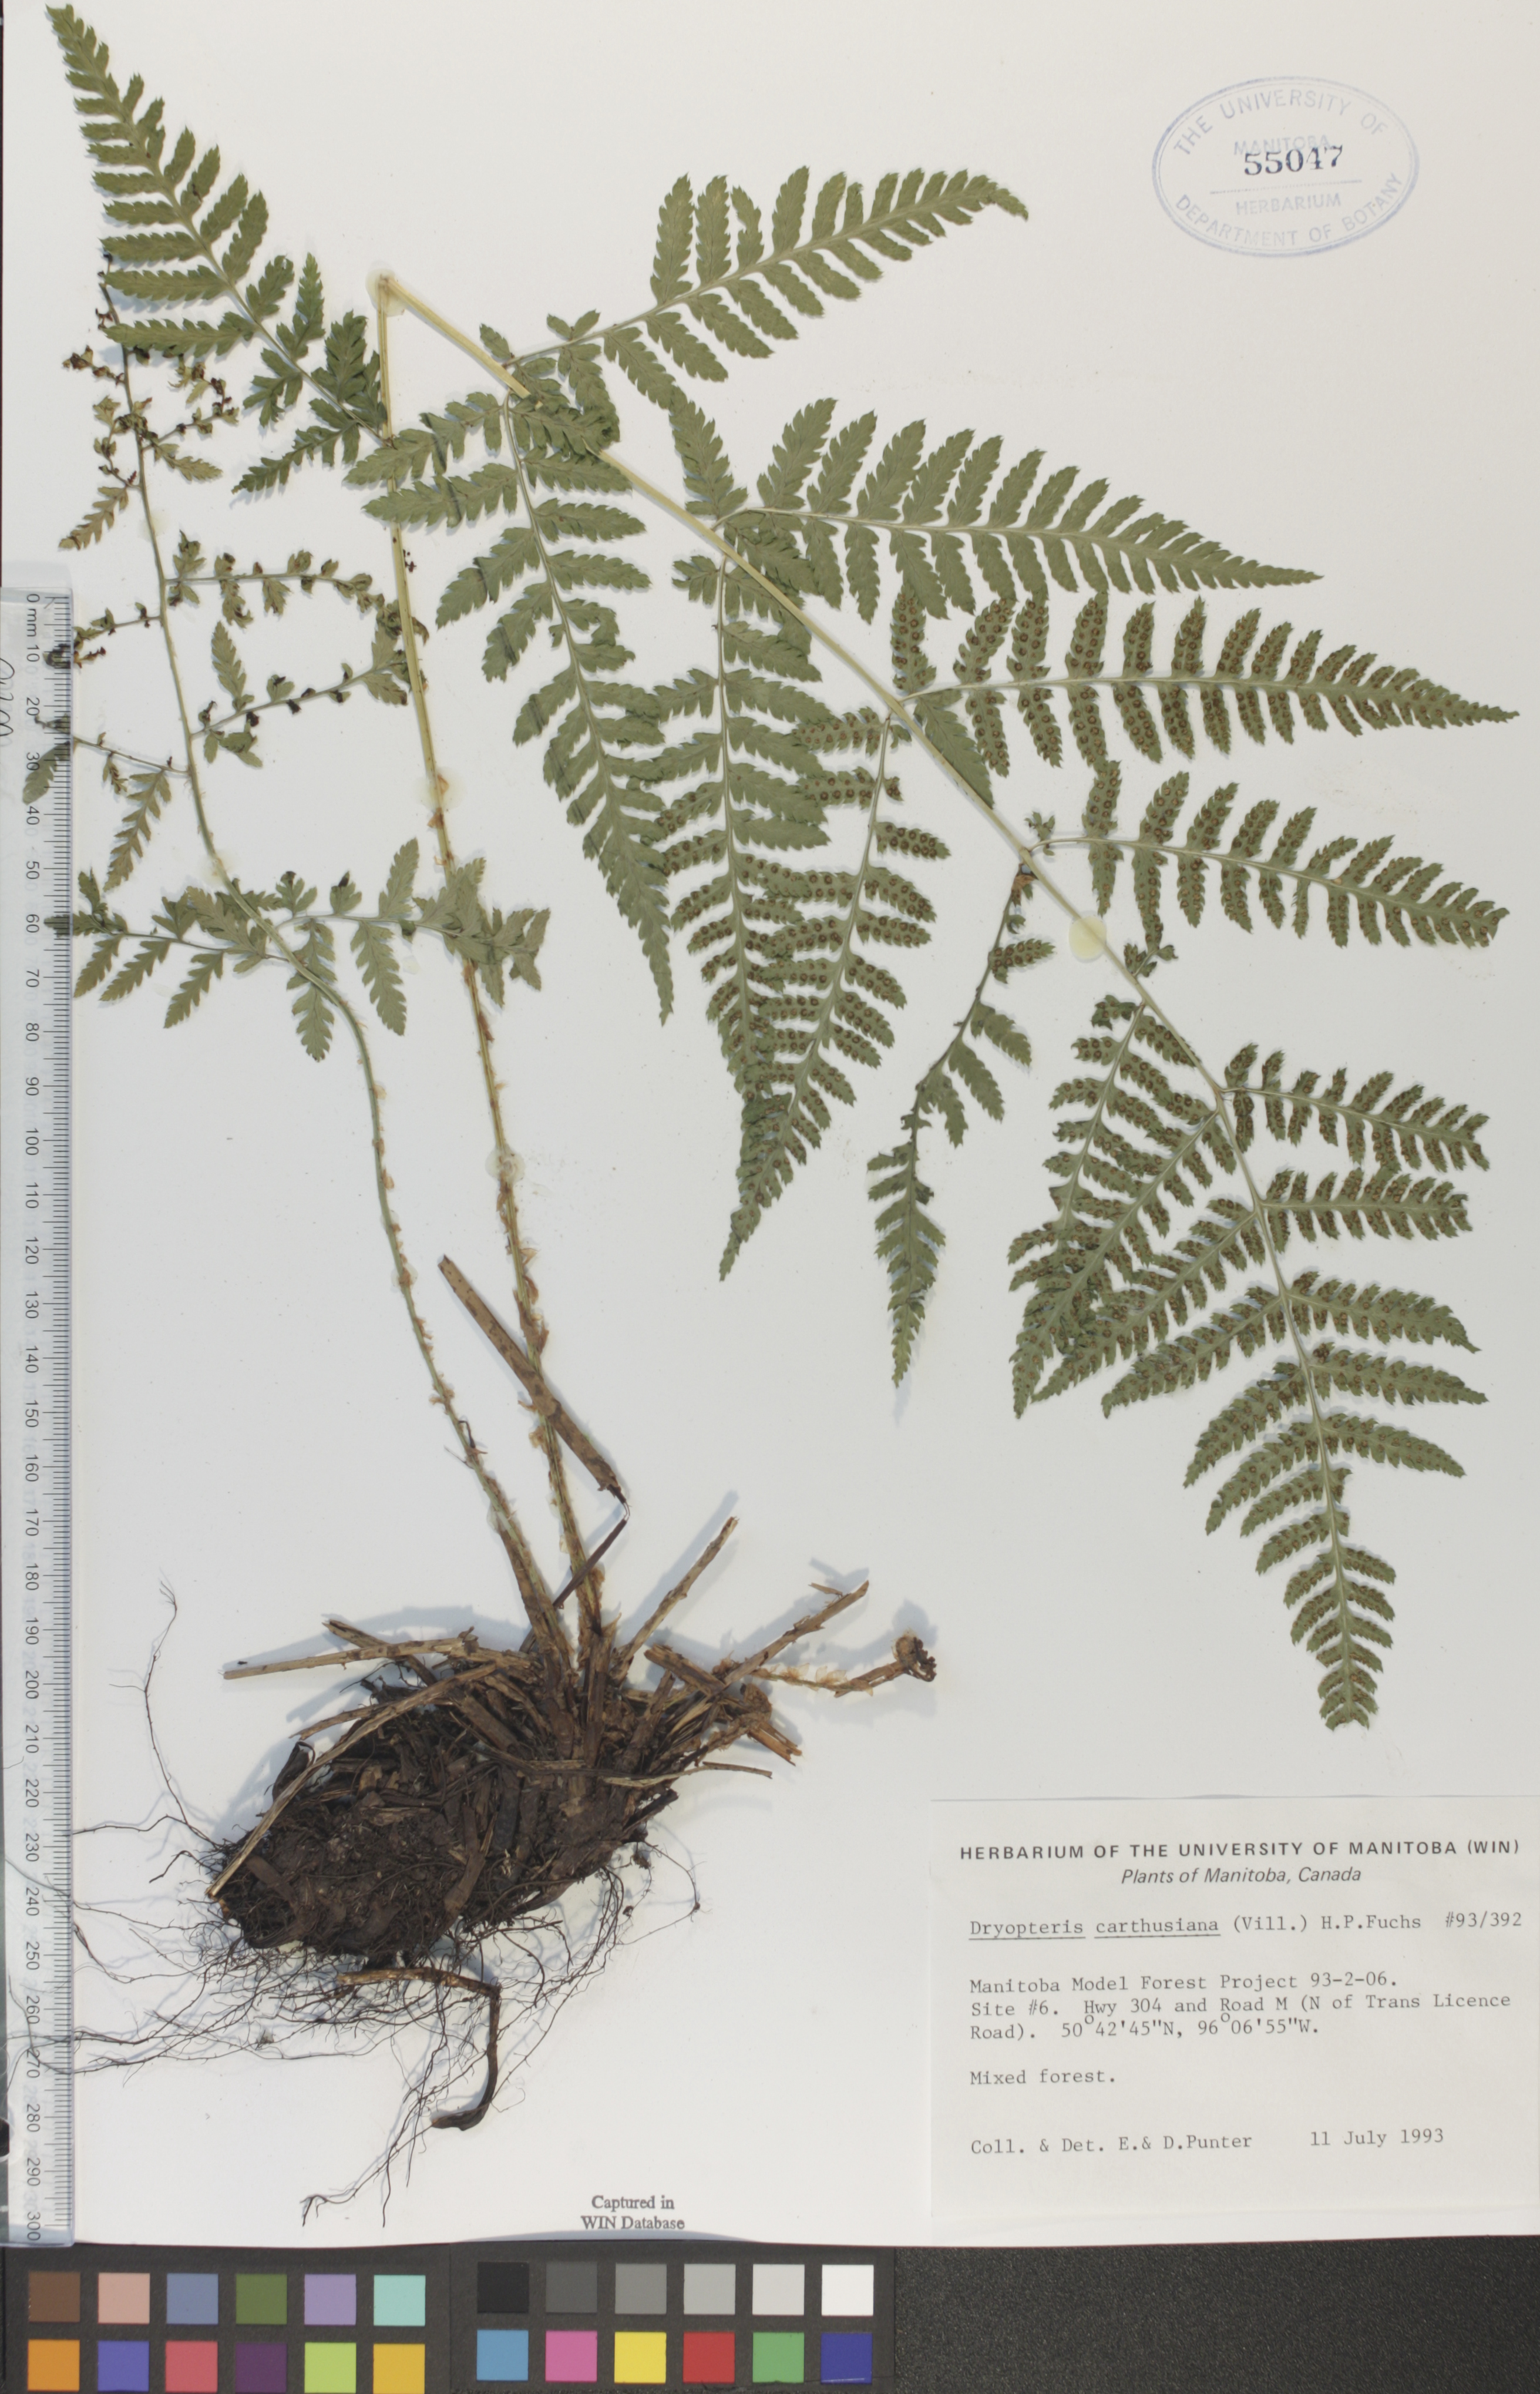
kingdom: Plantae
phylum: Tracheophyta
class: Polypodiopsida
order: Polypodiales
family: Dryopteridaceae
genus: Dryopteris
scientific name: Dryopteris carthusiana
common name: Narrow buckler-fern
